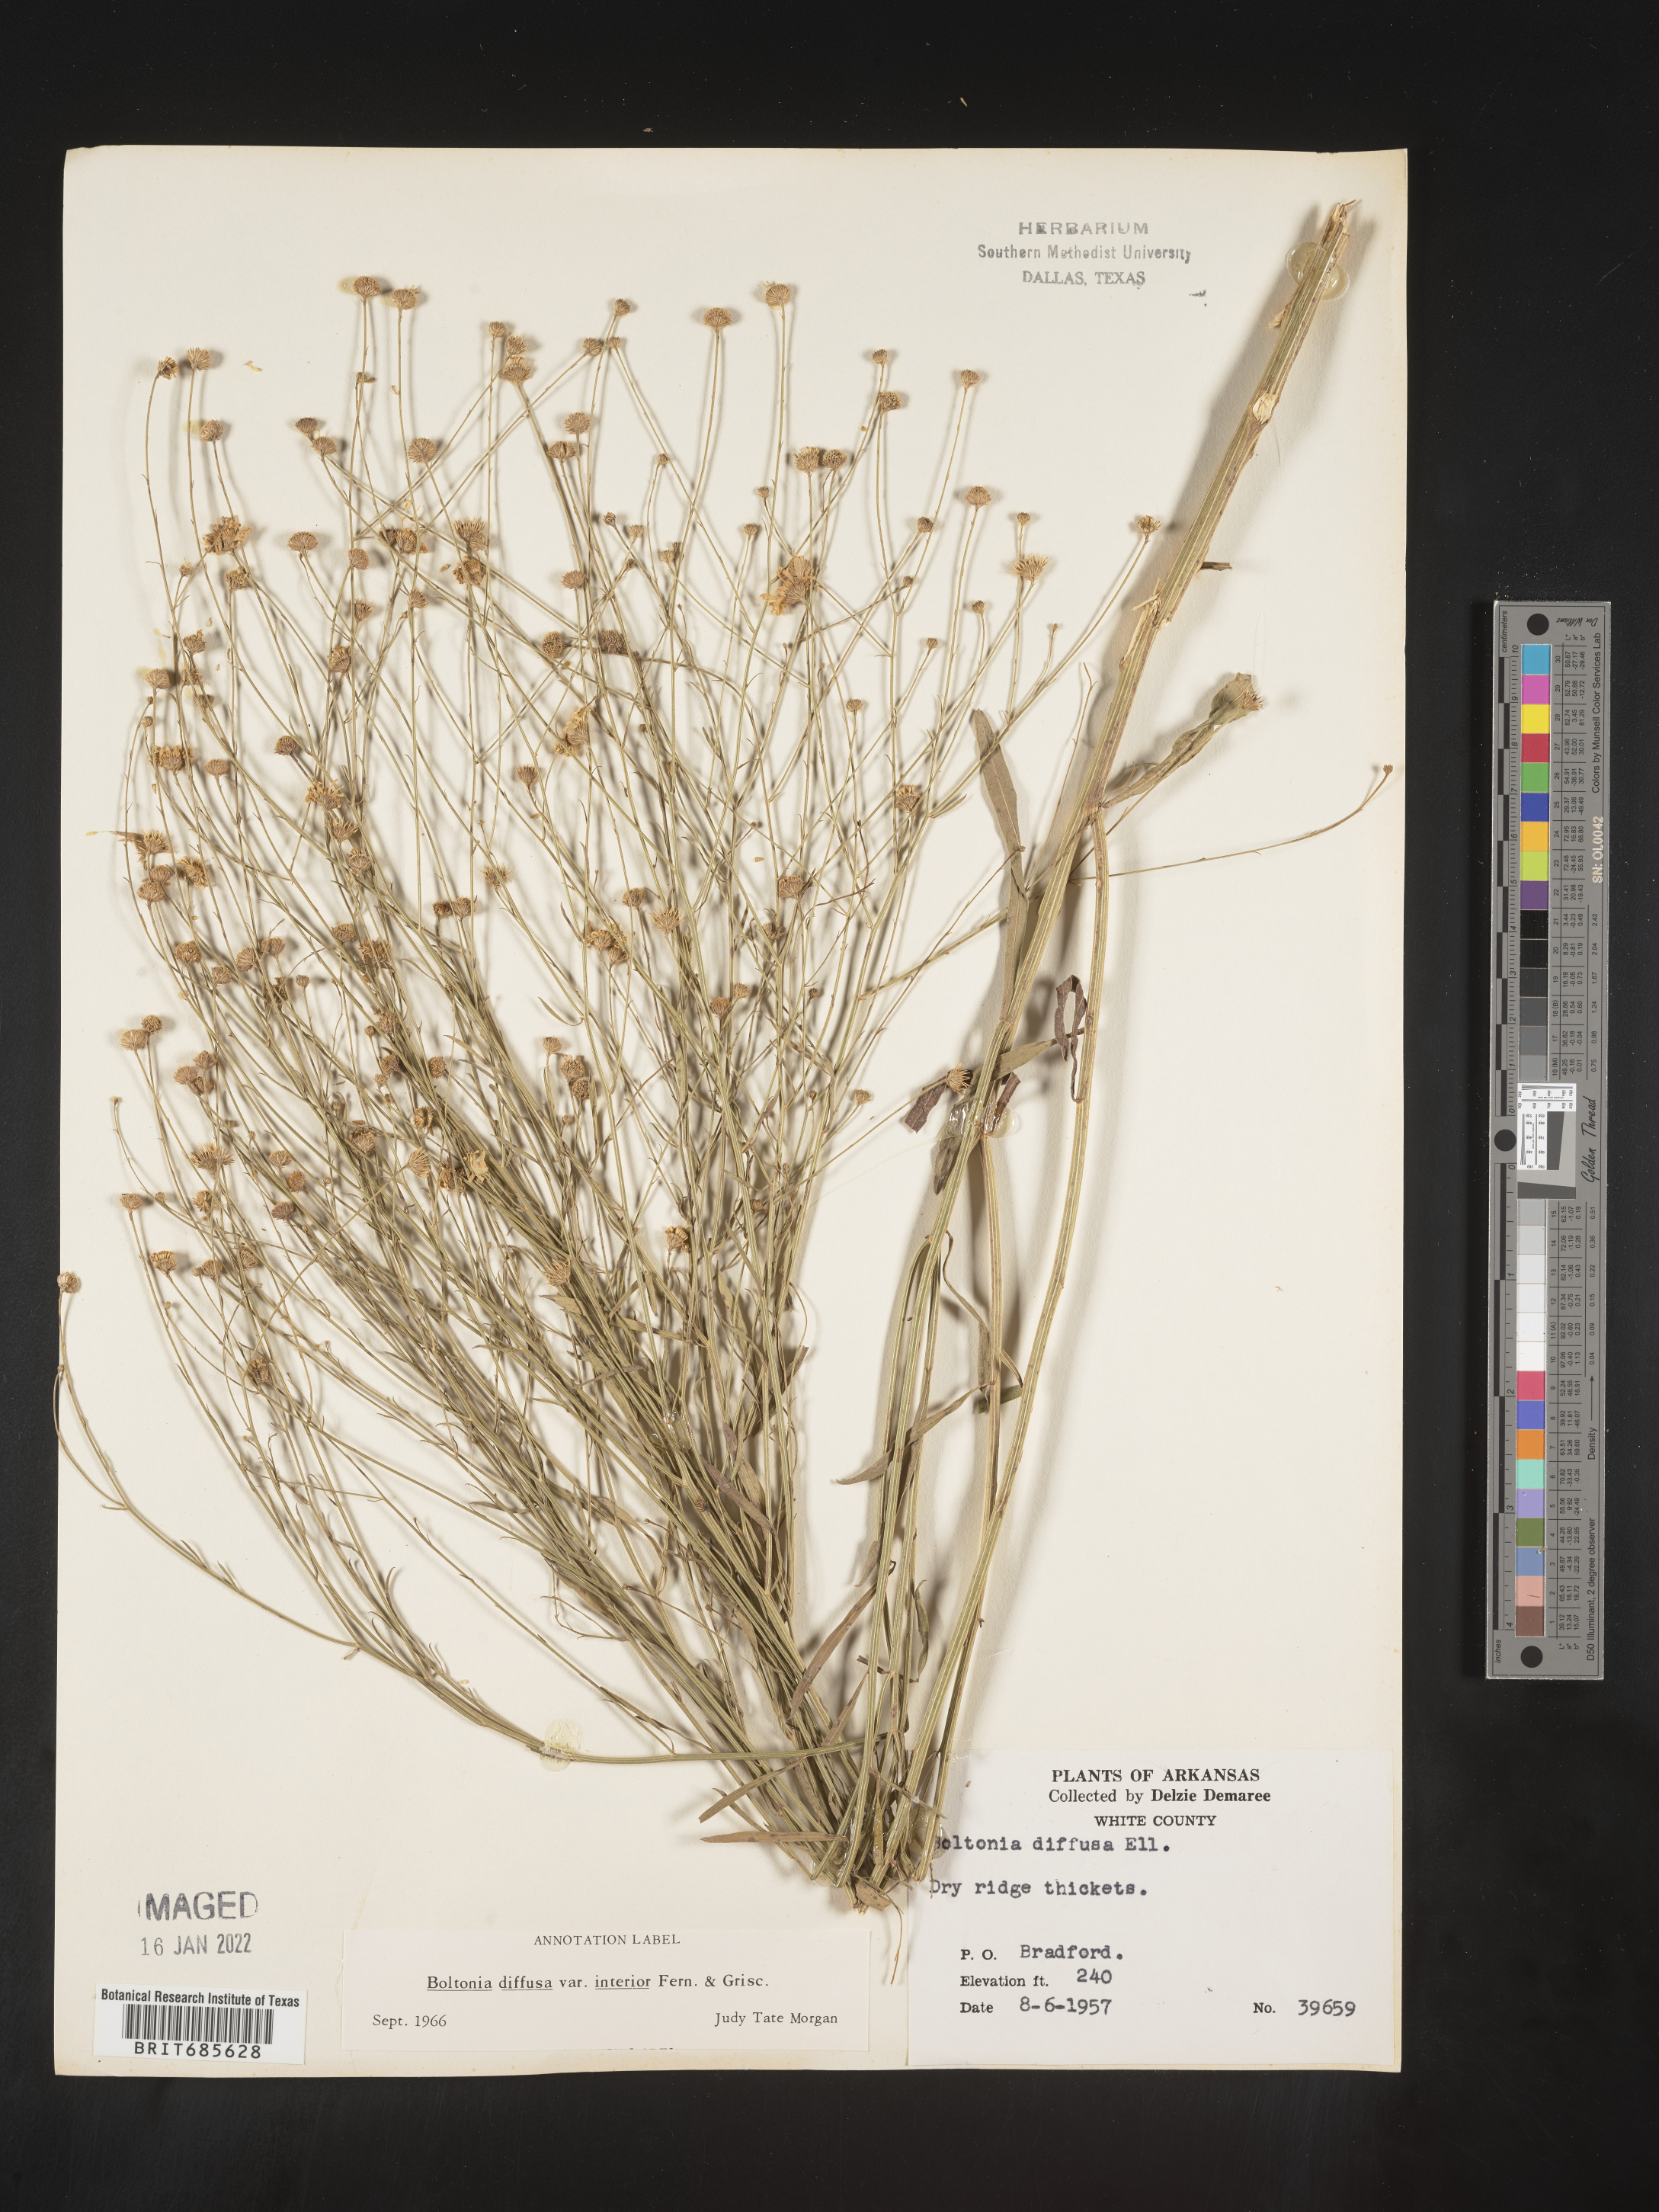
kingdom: Plantae
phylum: Tracheophyta
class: Magnoliopsida
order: Asterales
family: Asteraceae
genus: Boltonia
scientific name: Boltonia diffusa
